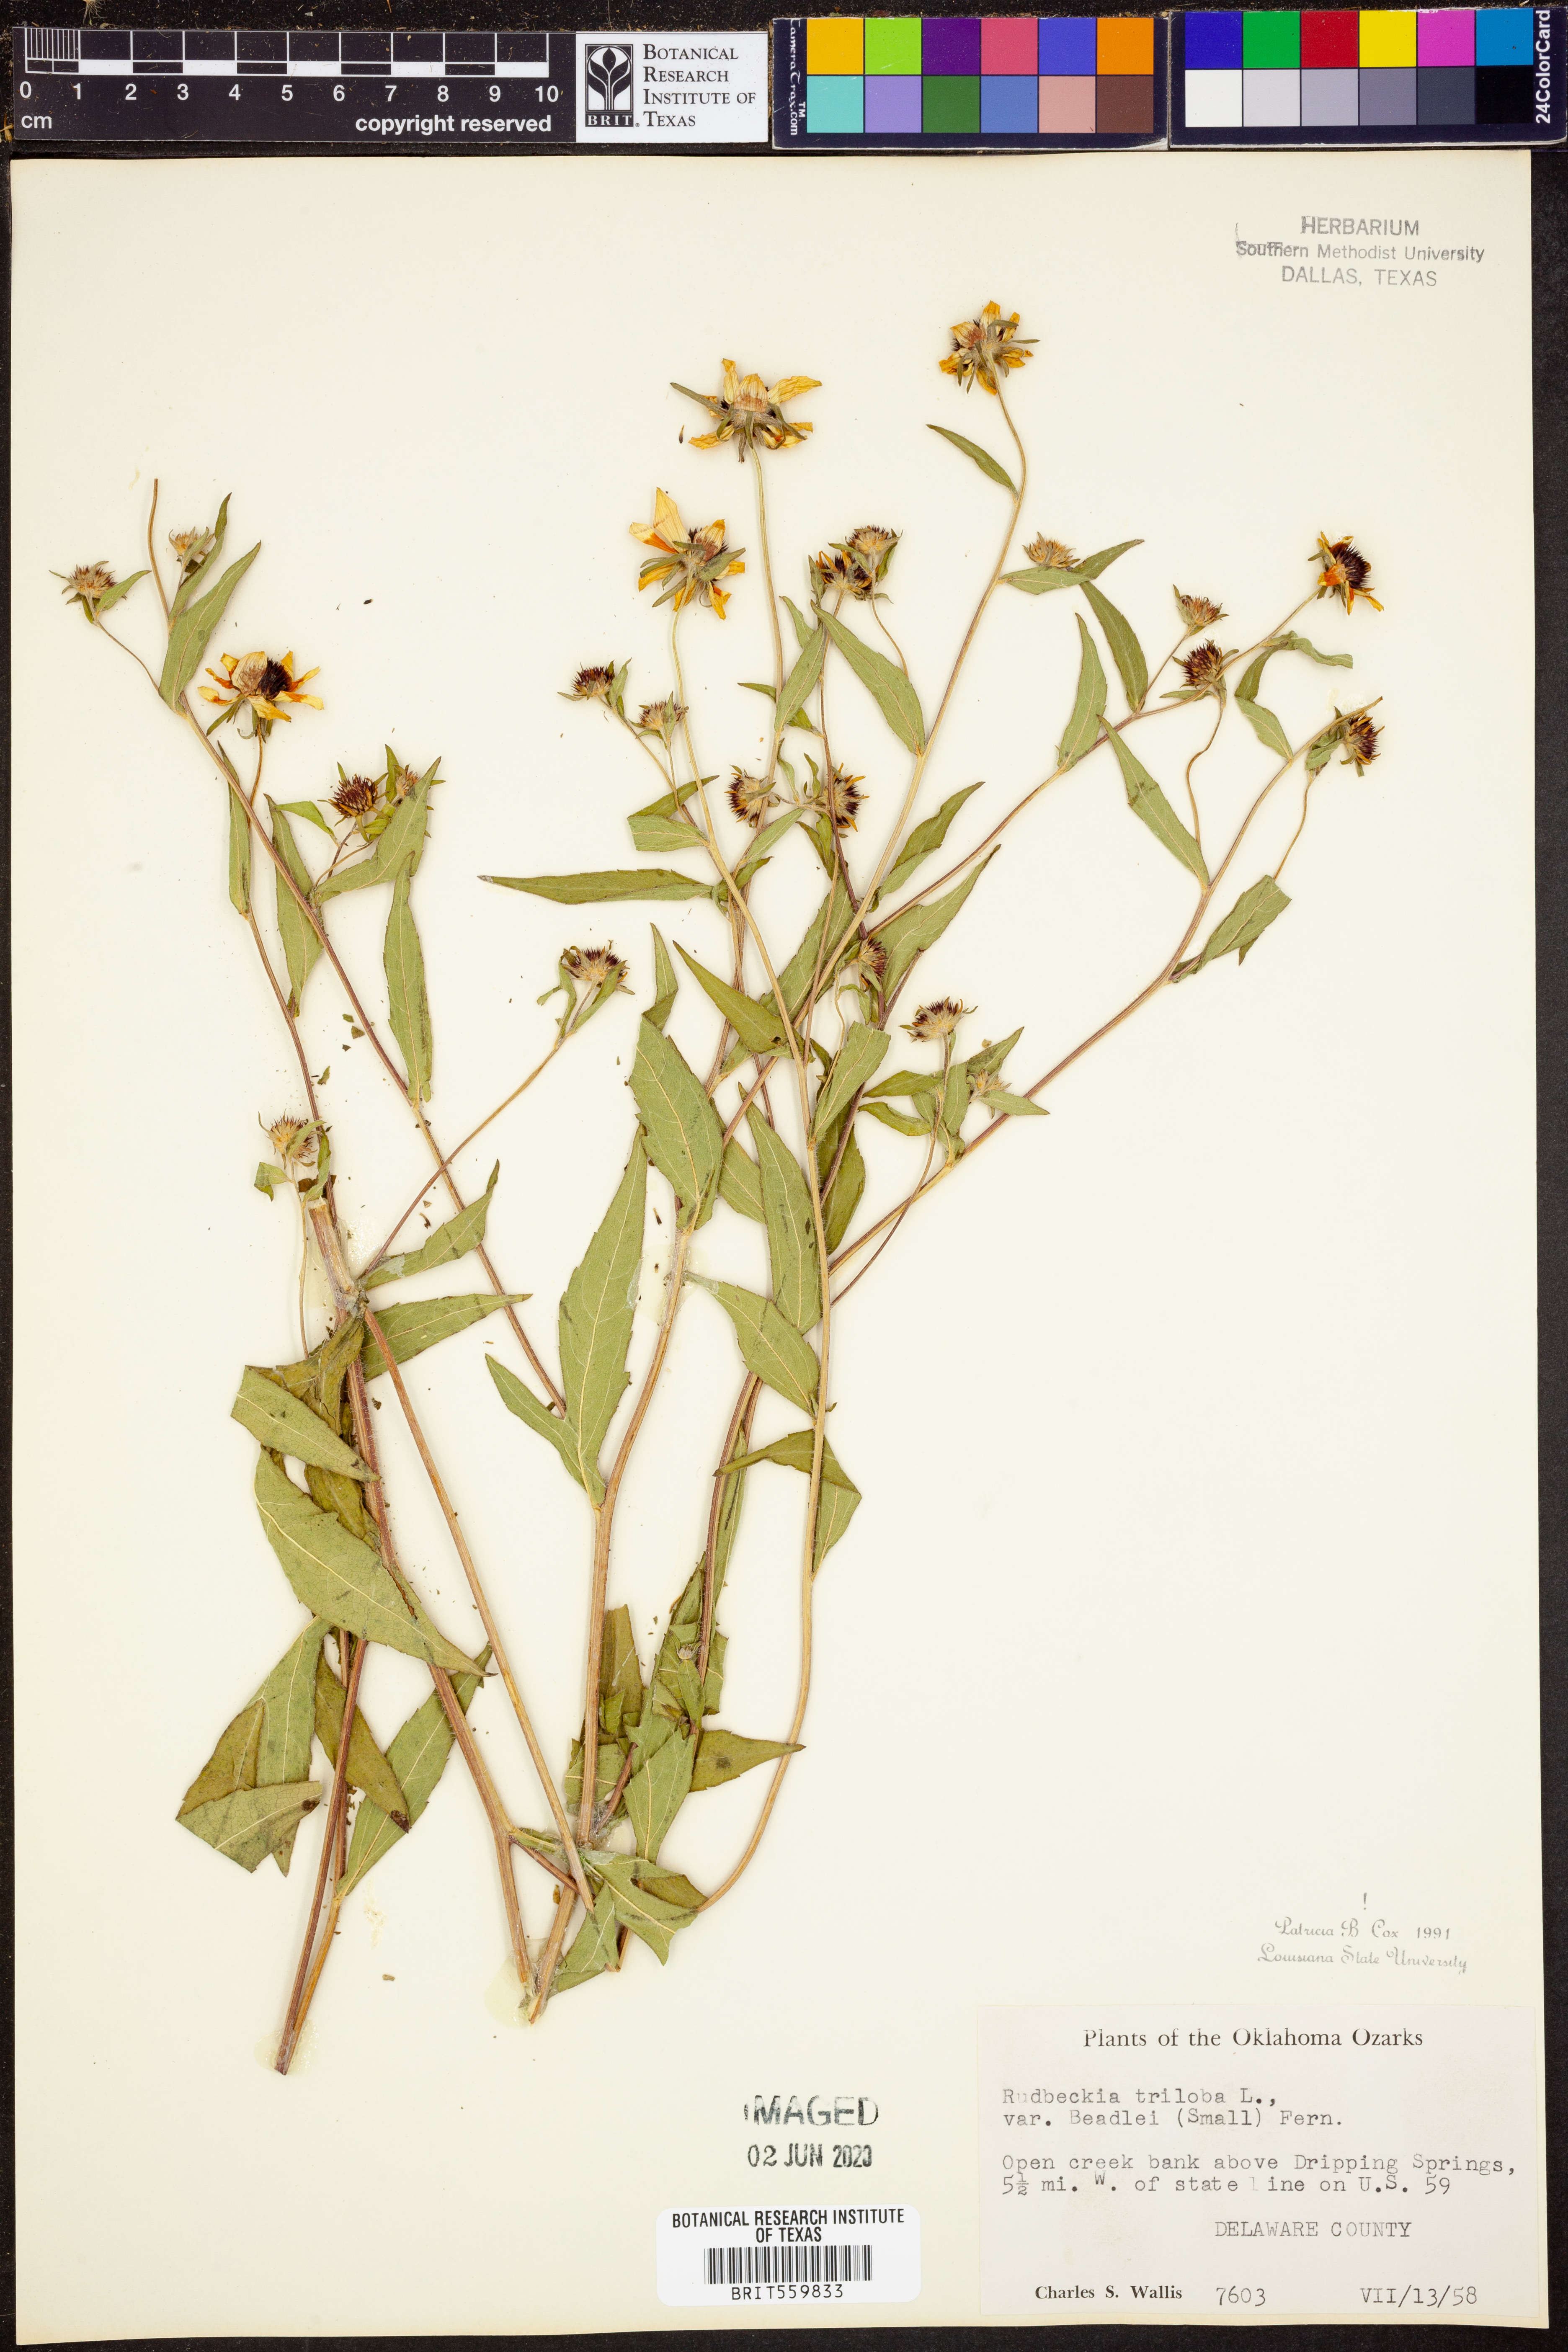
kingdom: Plantae
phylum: Tracheophyta
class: Magnoliopsida
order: Asterales
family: Asteraceae
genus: Rudbeckia
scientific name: Rudbeckia triloba
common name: Thin-leaved coneflower
